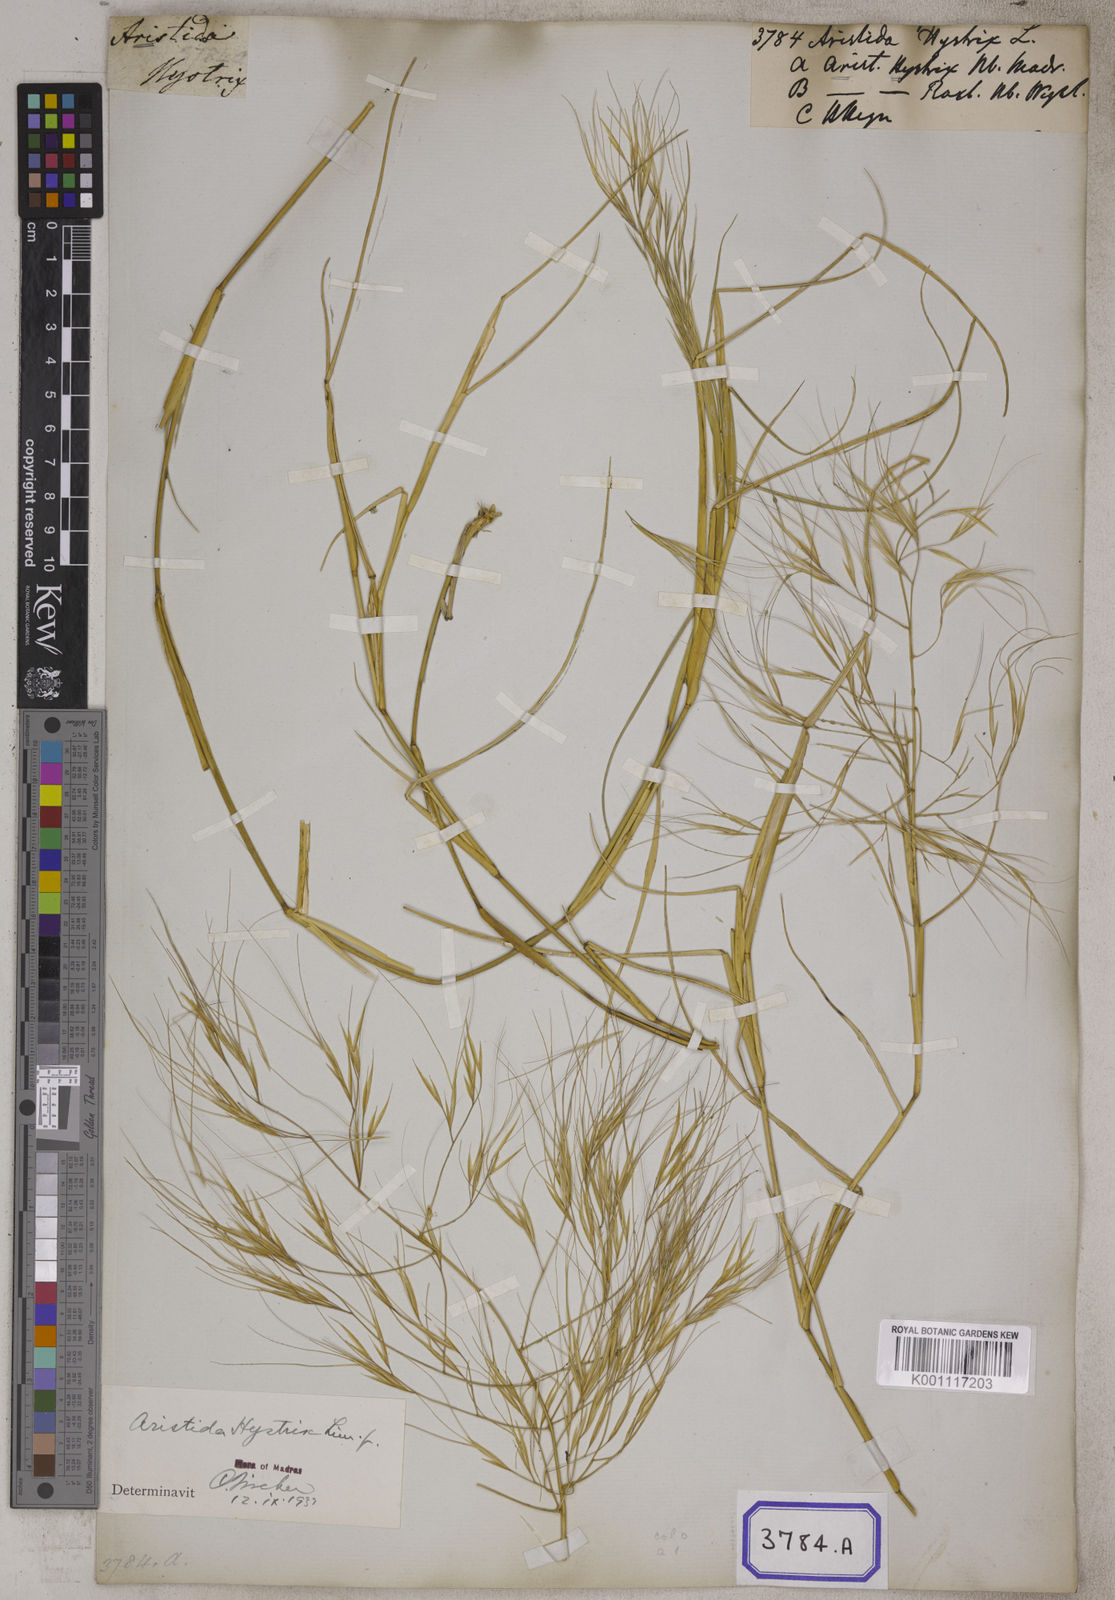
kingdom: Plantae
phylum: Tracheophyta
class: Liliopsida
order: Poales
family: Poaceae
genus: Aristida
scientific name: Aristida hystrix
